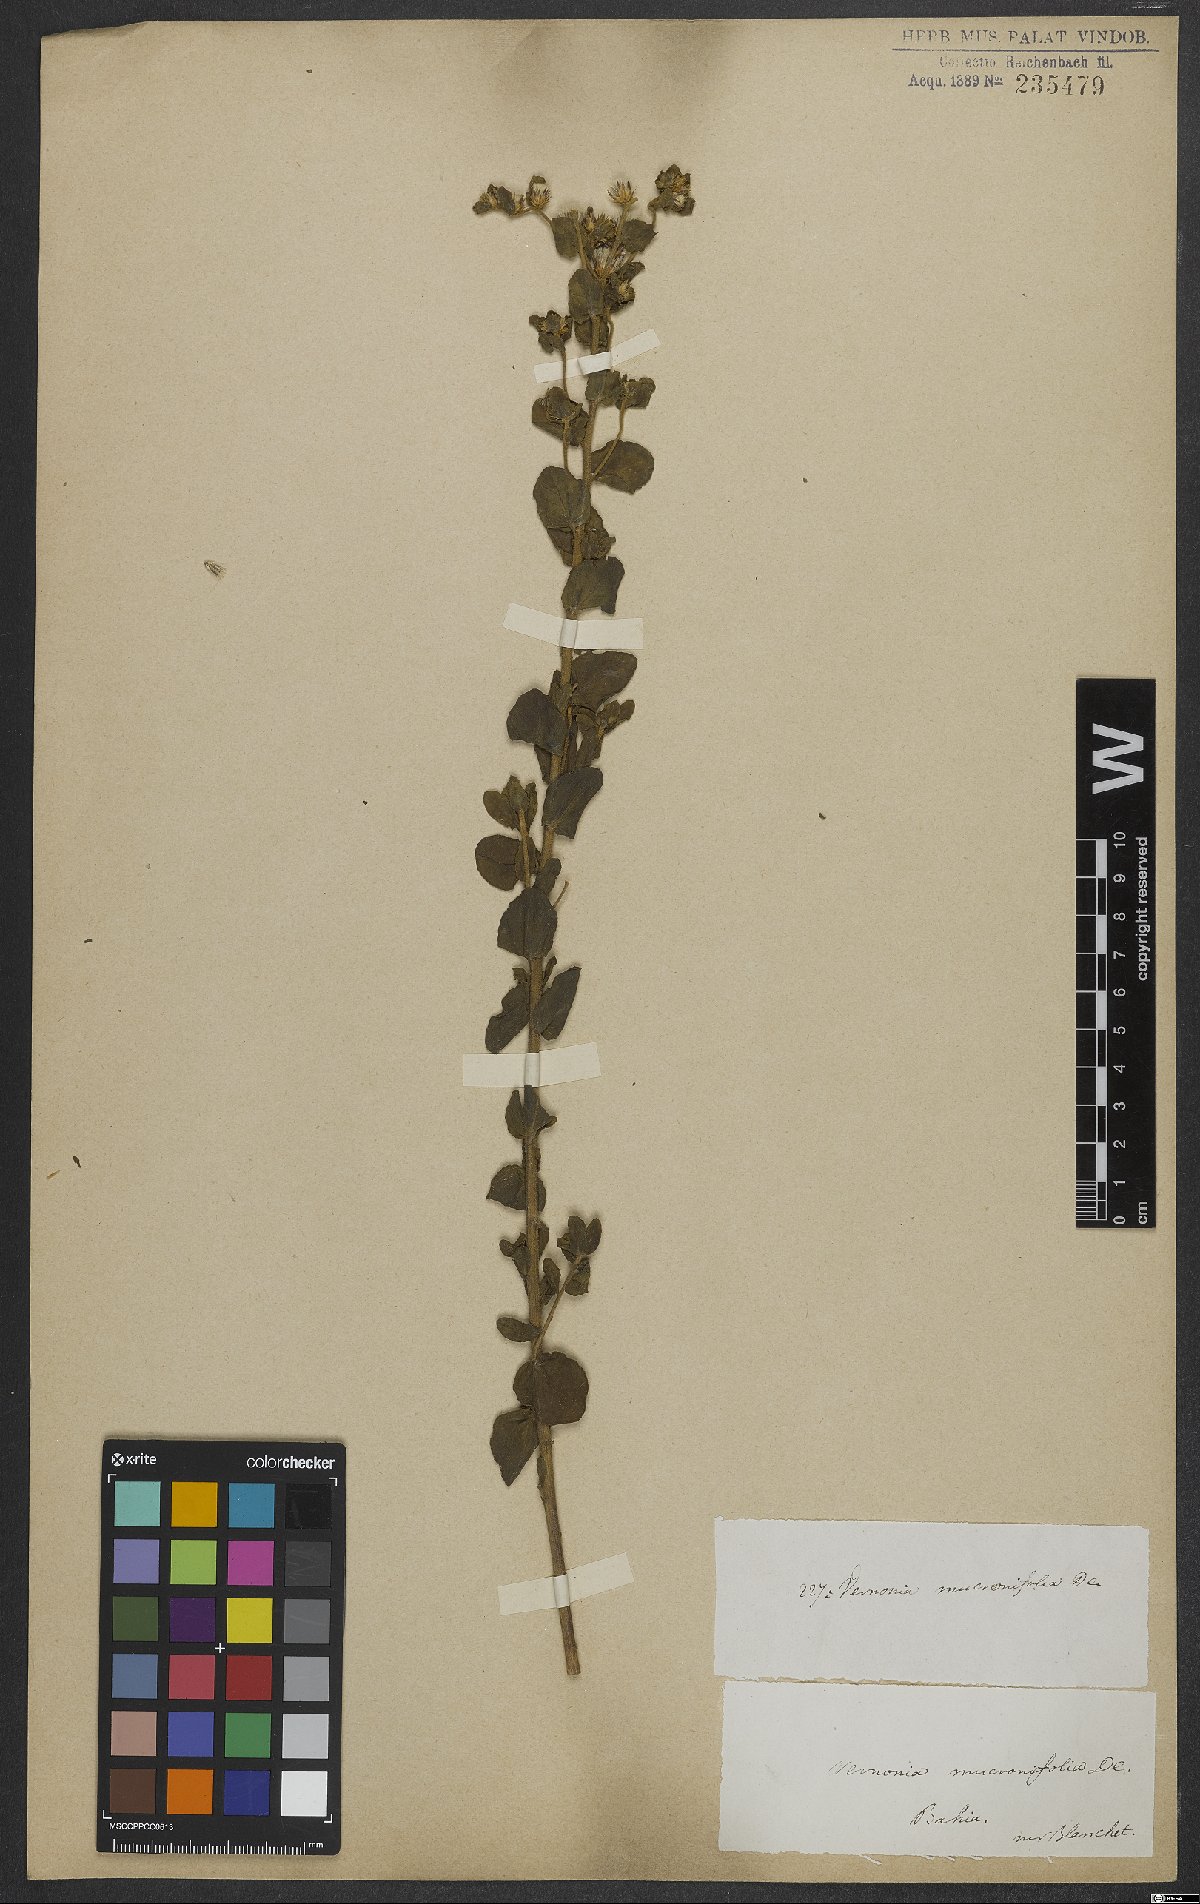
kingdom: Plantae
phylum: Tracheophyta
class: Magnoliopsida
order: Asterales
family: Asteraceae
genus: Lepidaploa
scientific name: Lepidaploa mucronifolia
